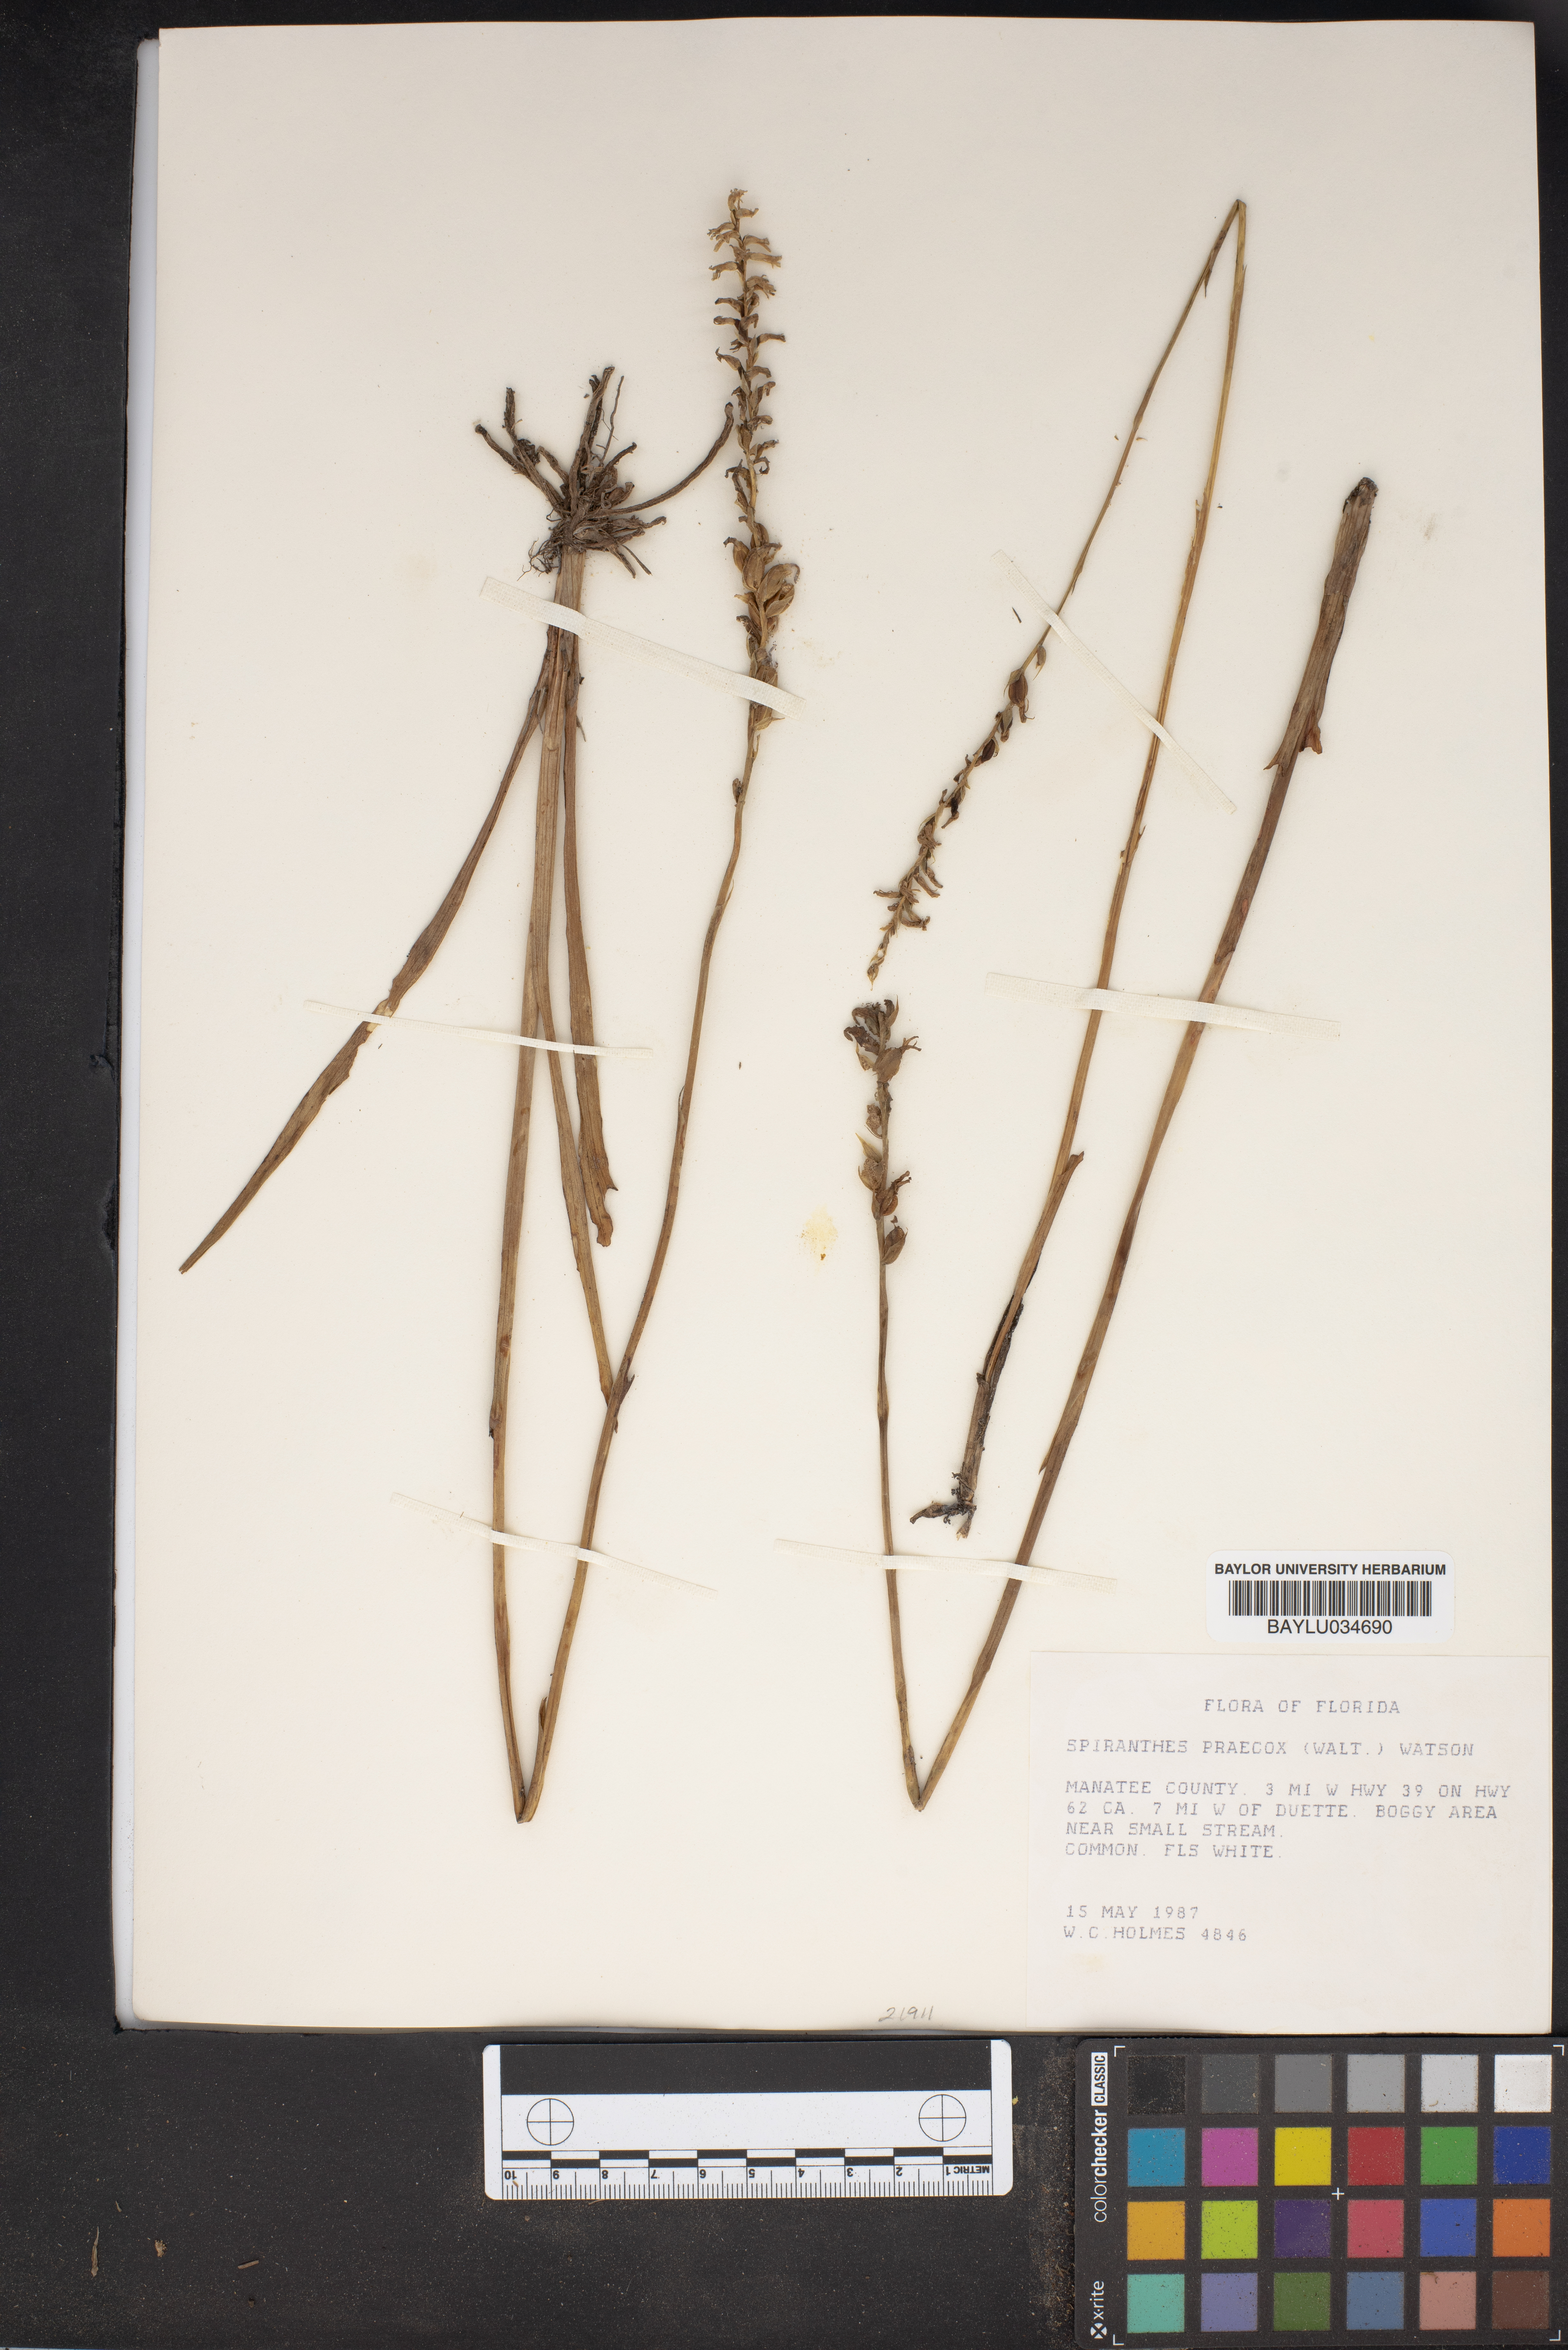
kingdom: Plantae
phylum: Tracheophyta
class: Liliopsida
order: Asparagales
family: Orchidaceae
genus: Spiranthes
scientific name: Spiranthes praecox
